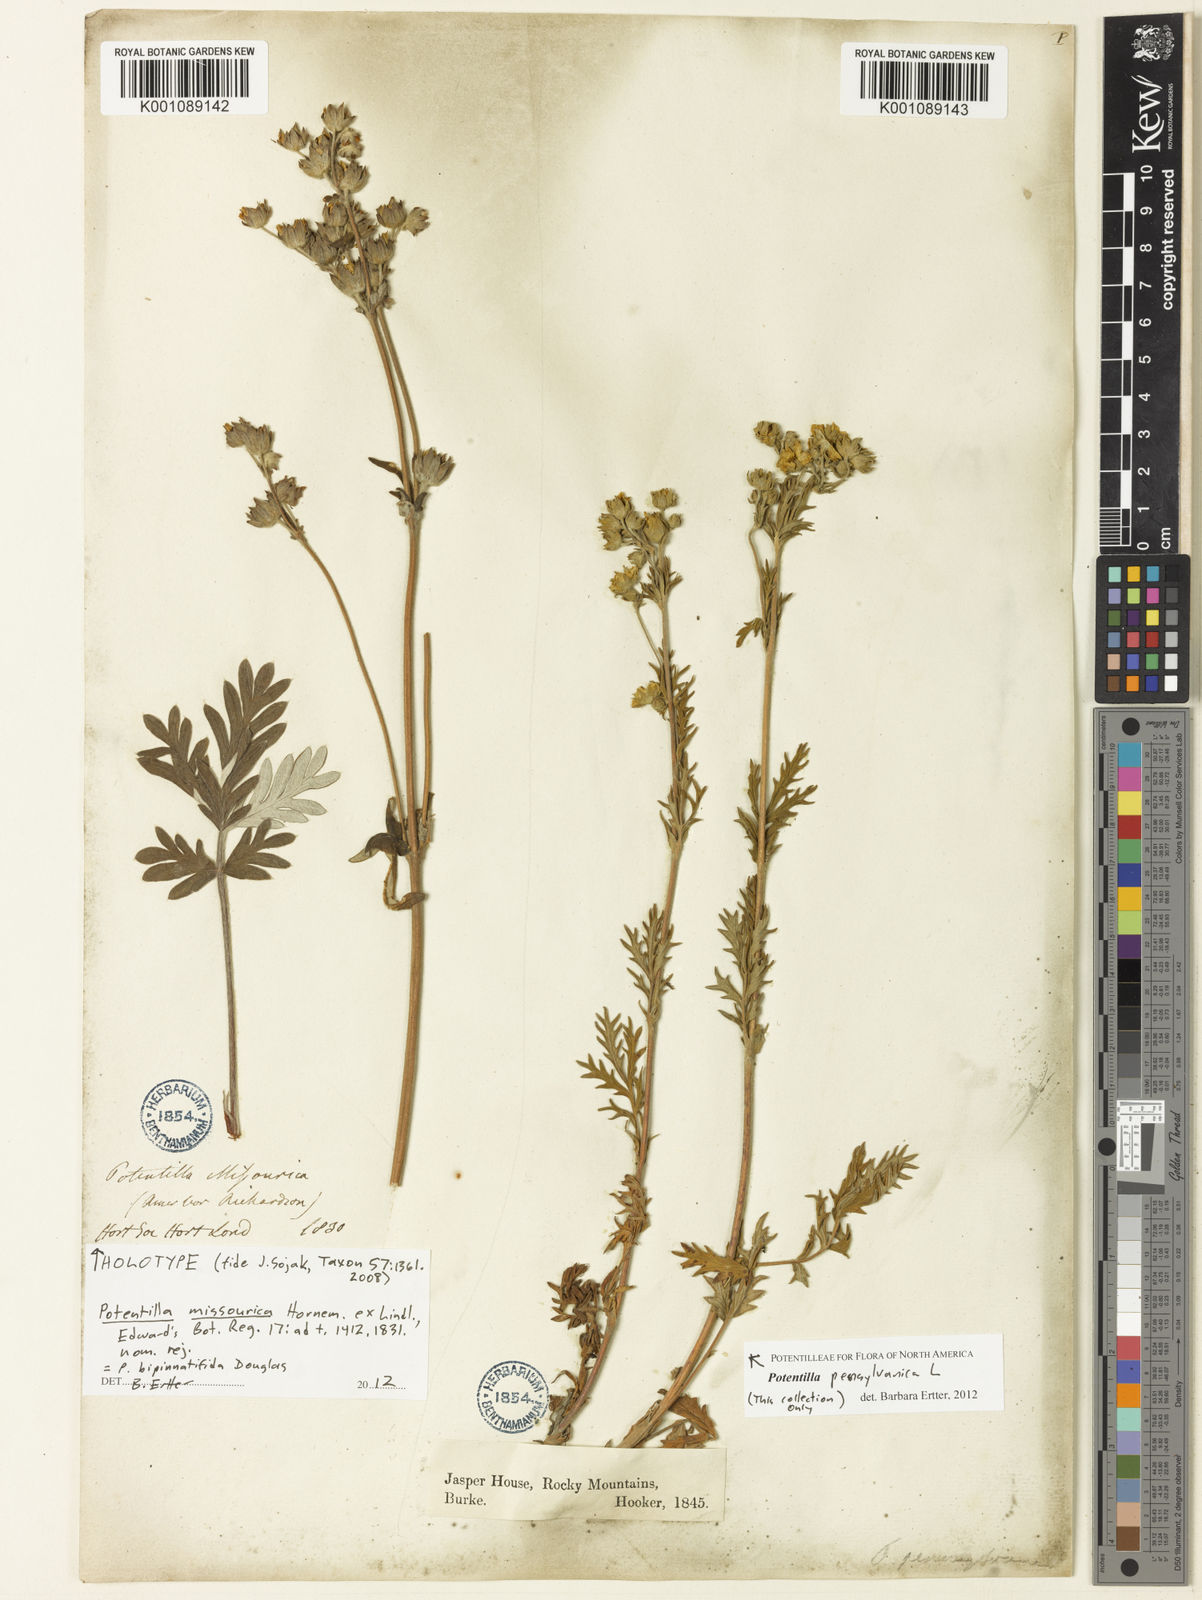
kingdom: Plantae
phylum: Tracheophyta
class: Magnoliopsida
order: Rosales
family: Rosaceae
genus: Potentilla
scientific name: Potentilla pensylvanica
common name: Pennsylvania cinquefoil
